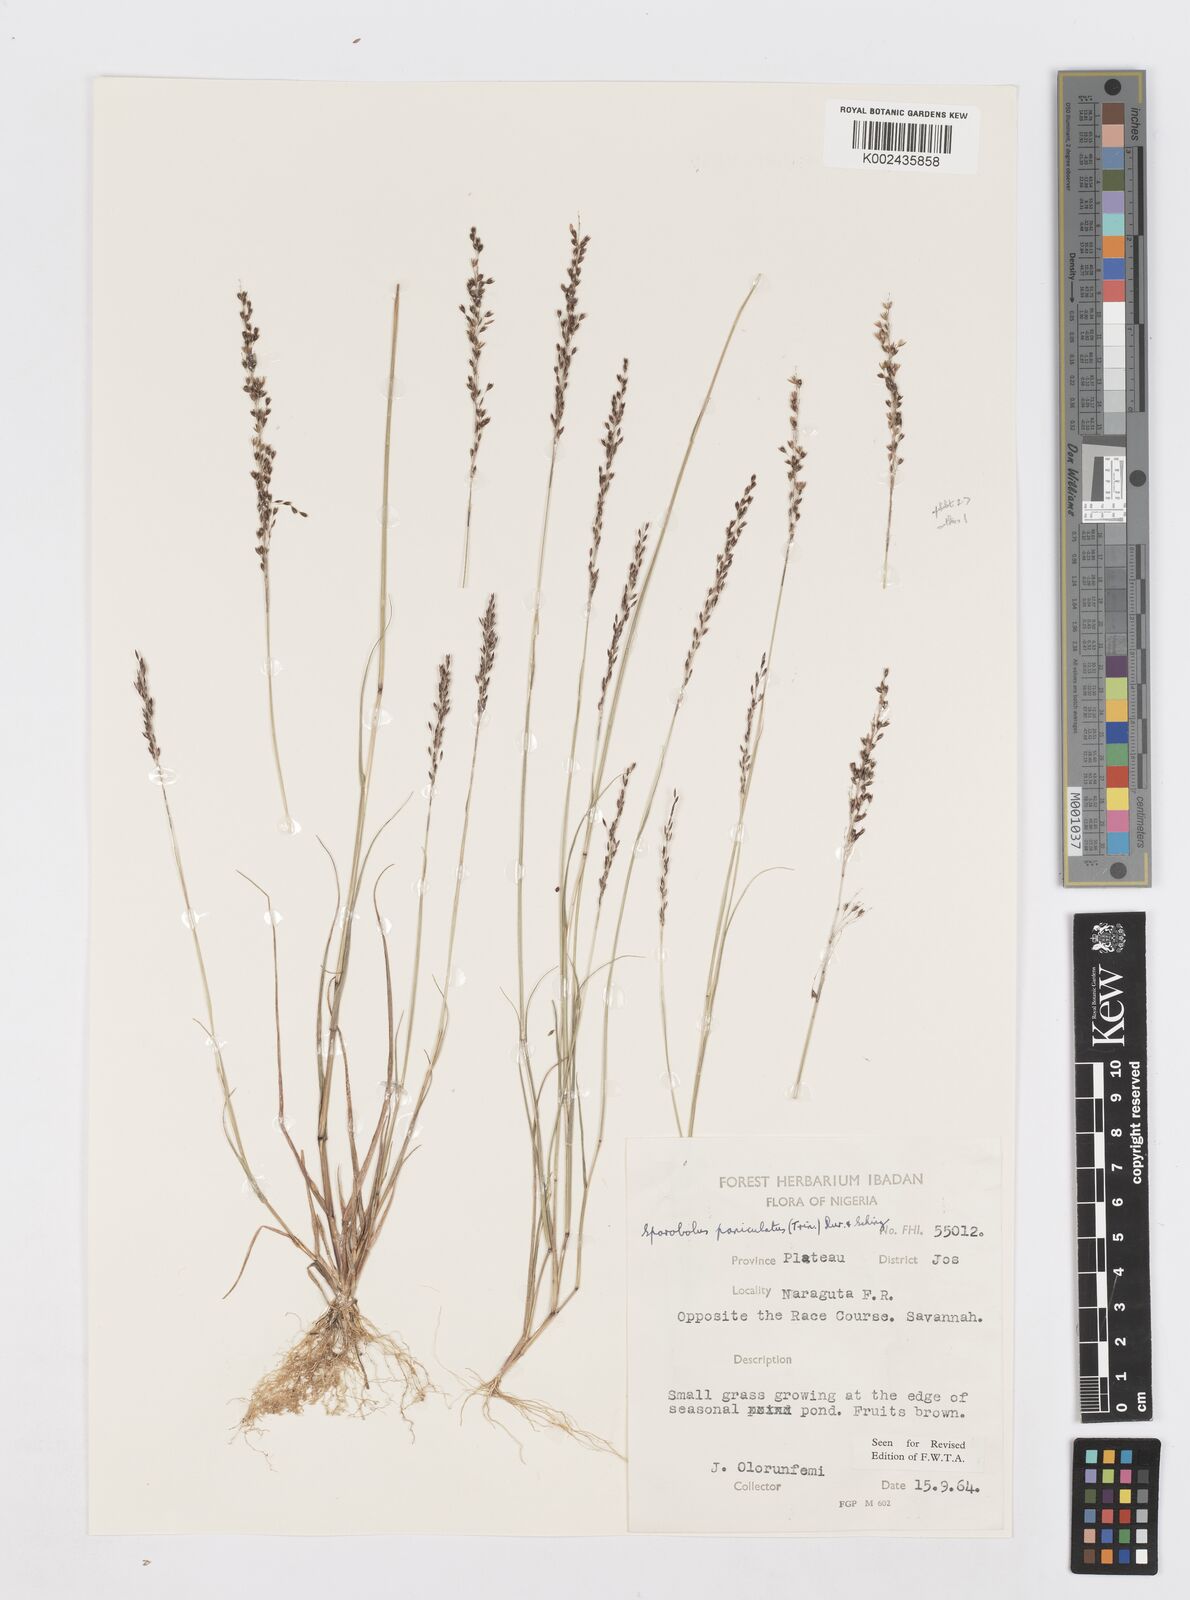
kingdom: Plantae
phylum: Tracheophyta
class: Liliopsida
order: Poales
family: Poaceae
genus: Sporobolus
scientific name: Sporobolus paniculatus
